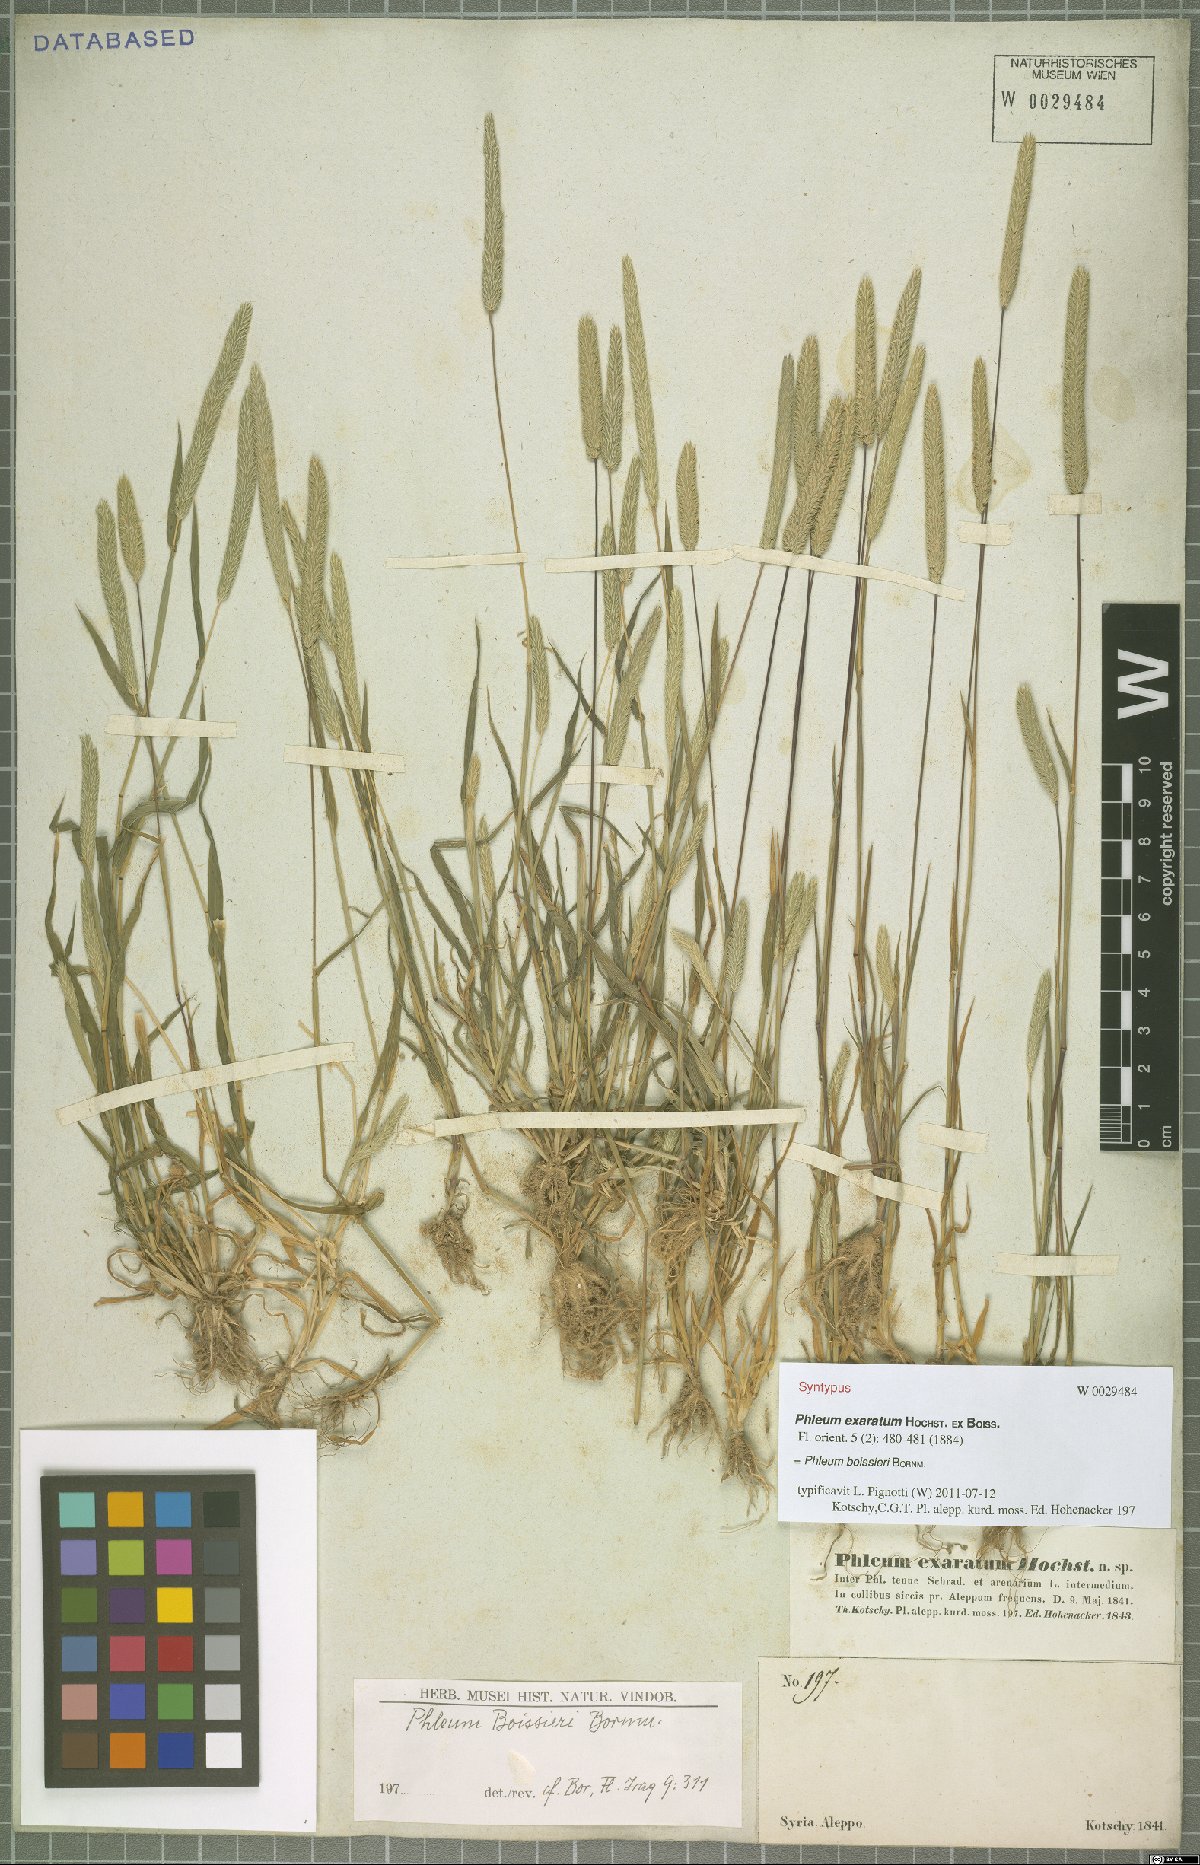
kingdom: Plantae
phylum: Tracheophyta
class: Liliopsida
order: Poales
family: Poaceae
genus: Phleum
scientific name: Phleum boissieri
